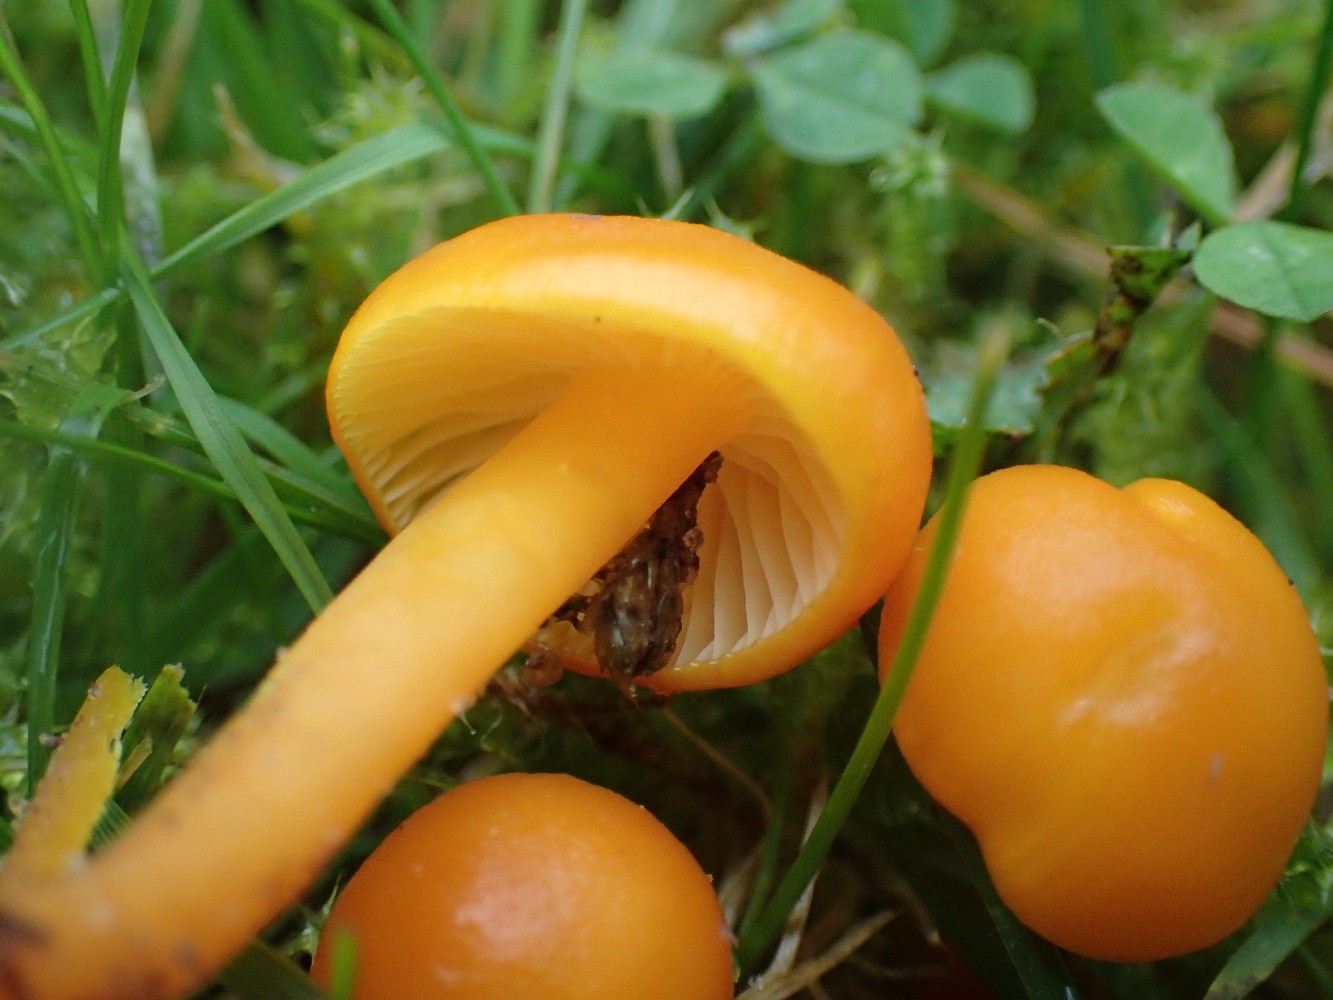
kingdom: Fungi
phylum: Basidiomycota
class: Agaricomycetes
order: Agaricales
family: Hygrophoraceae
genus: Hygrocybe
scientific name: Hygrocybe ceracea
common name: voksgul vokshat
